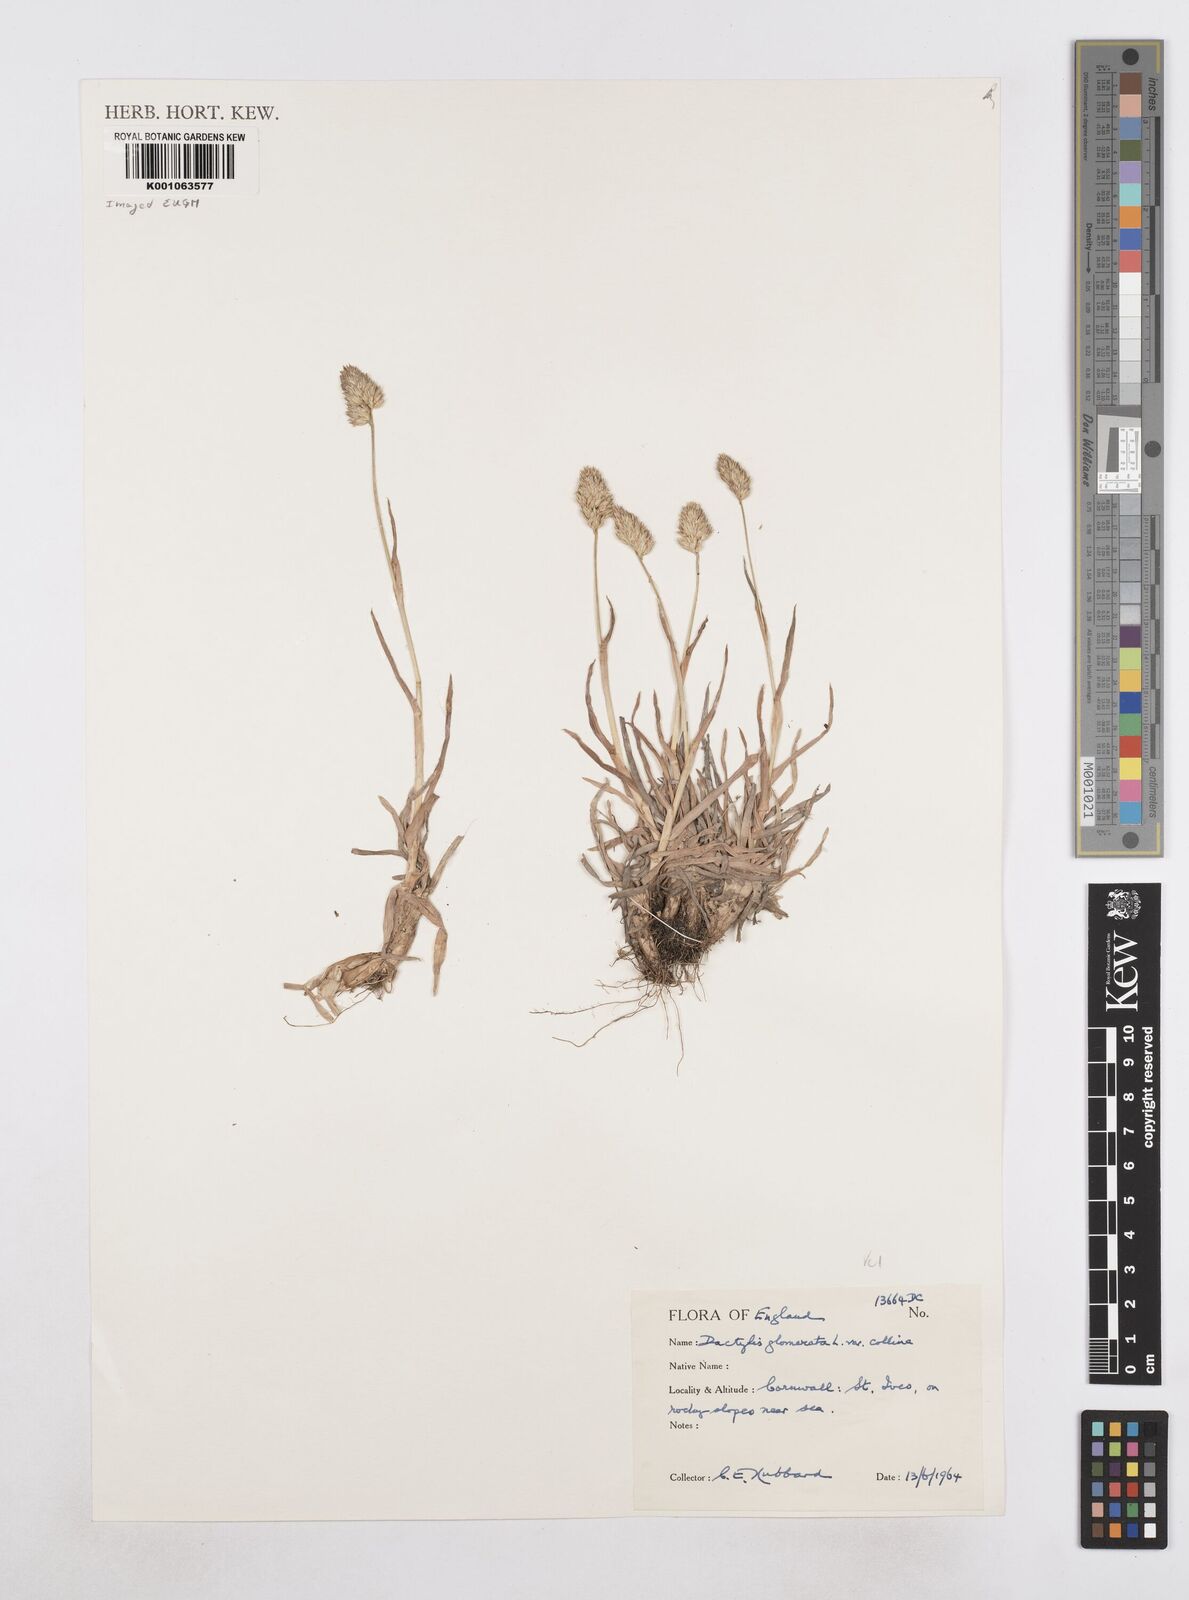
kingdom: Plantae
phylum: Tracheophyta
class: Liliopsida
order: Poales
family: Poaceae
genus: Dactylis
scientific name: Dactylis glomerata
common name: Orchardgrass
